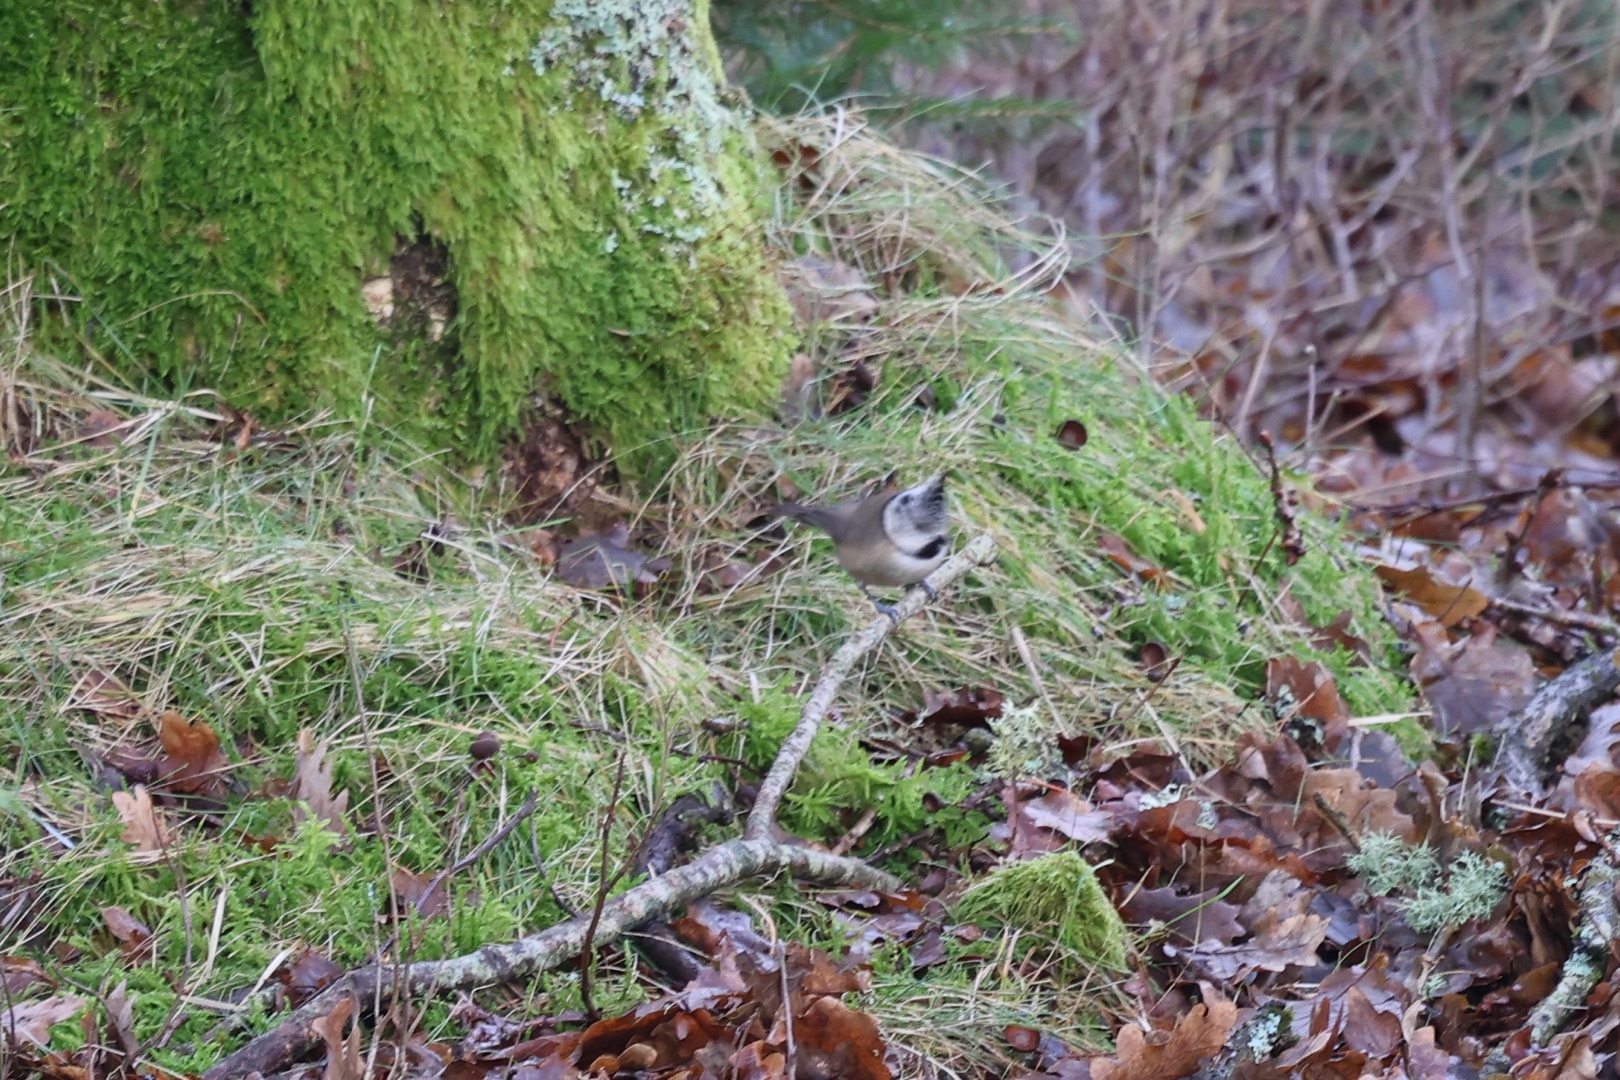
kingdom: Animalia
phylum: Chordata
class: Aves
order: Passeriformes
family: Paridae
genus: Lophophanes
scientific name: Lophophanes cristatus
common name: Topmejse
